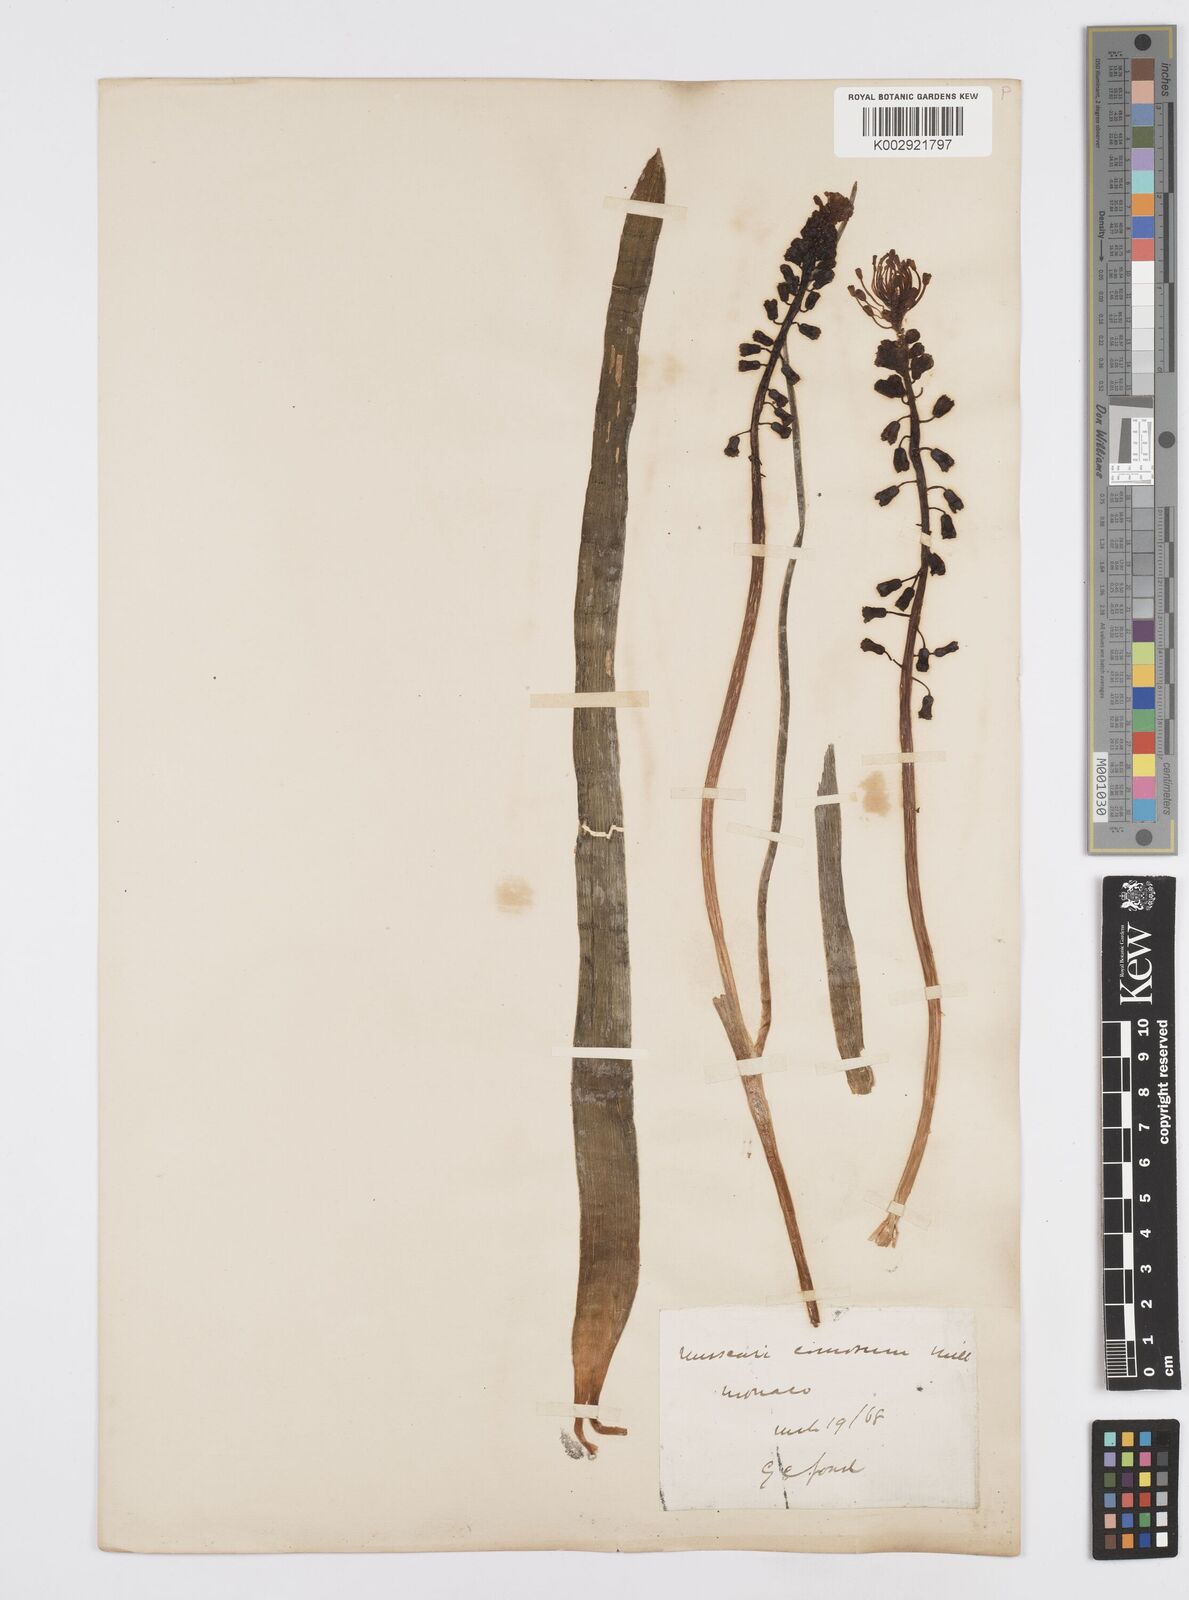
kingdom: Plantae
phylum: Tracheophyta
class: Liliopsida
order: Asparagales
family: Asparagaceae
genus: Muscari
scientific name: Muscari comosum
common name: Tassel hyacinth
